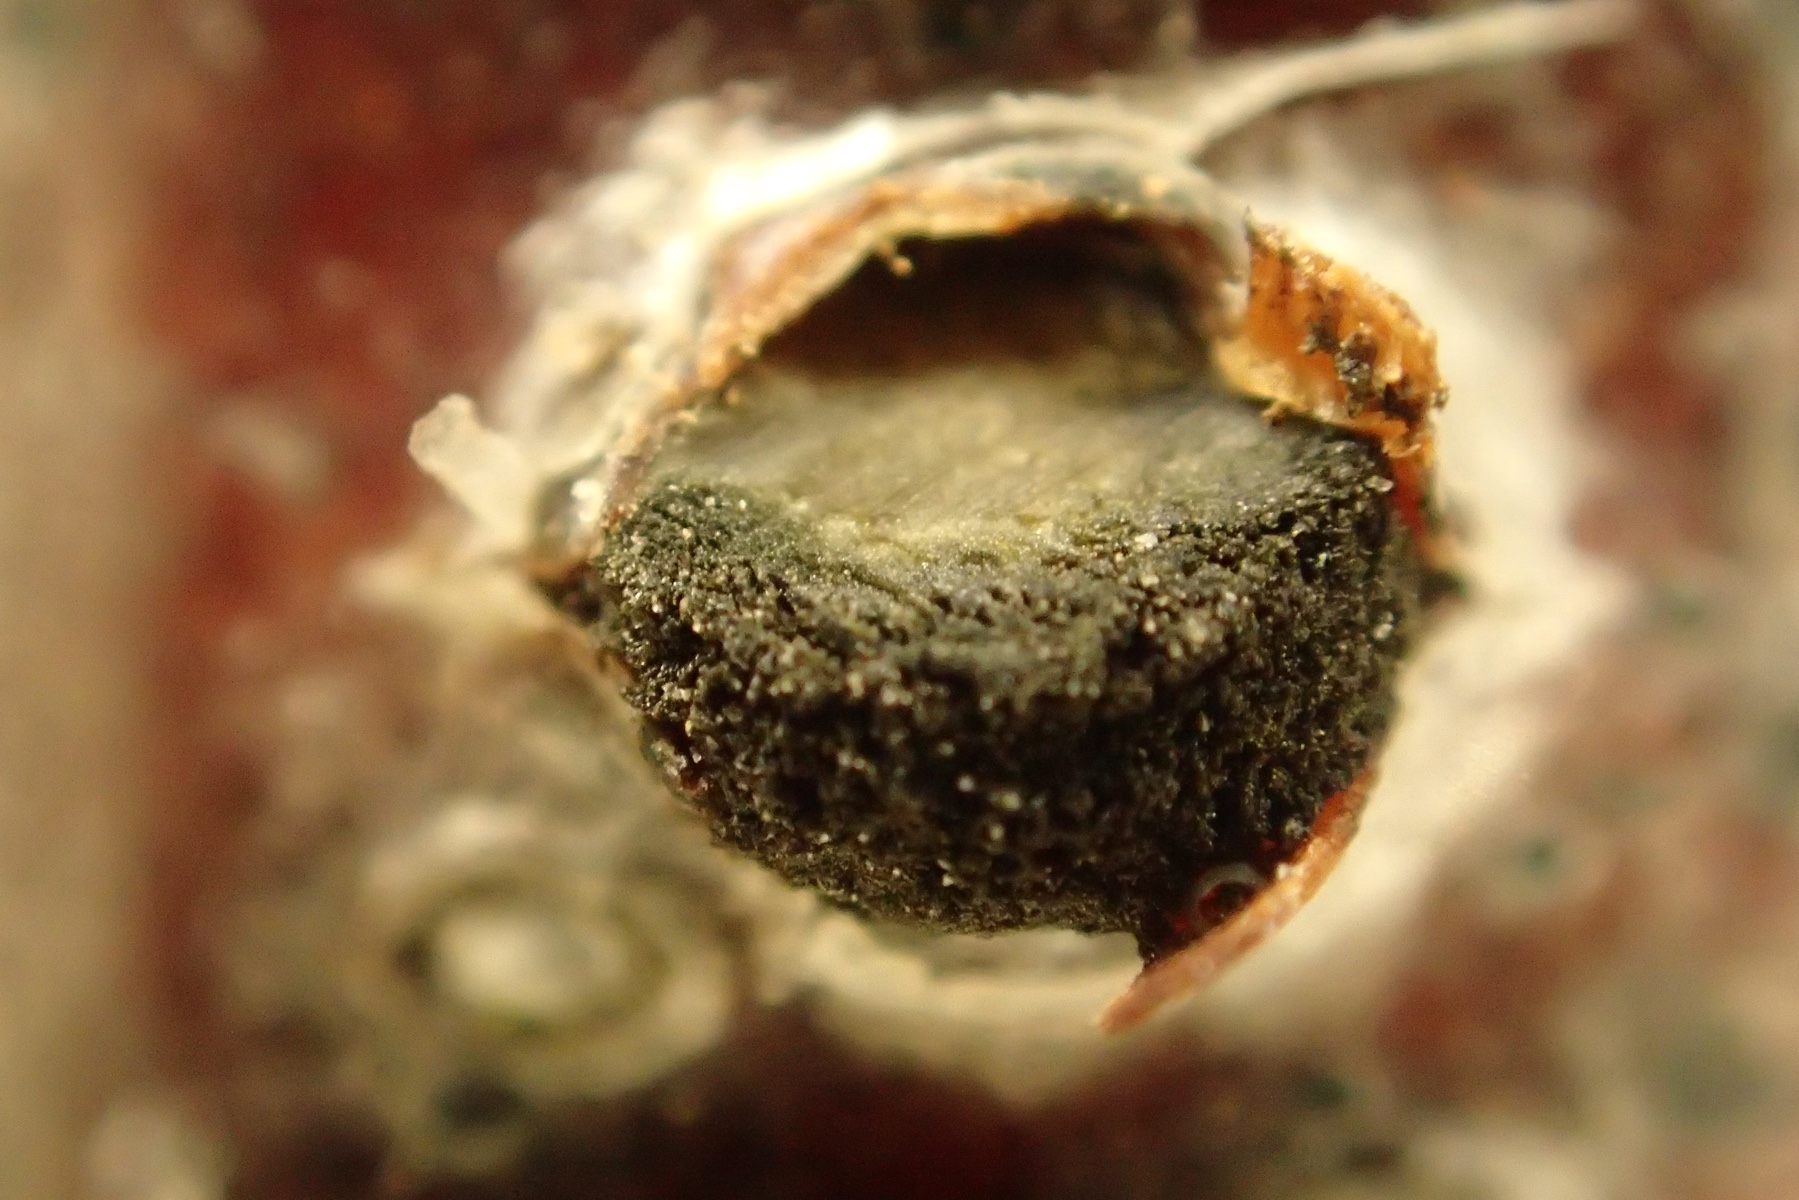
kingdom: Fungi
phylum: Ascomycota
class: Sordariomycetes
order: Diaporthales
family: Coryneaceae
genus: Coryneum
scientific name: Coryneum lanciforme
